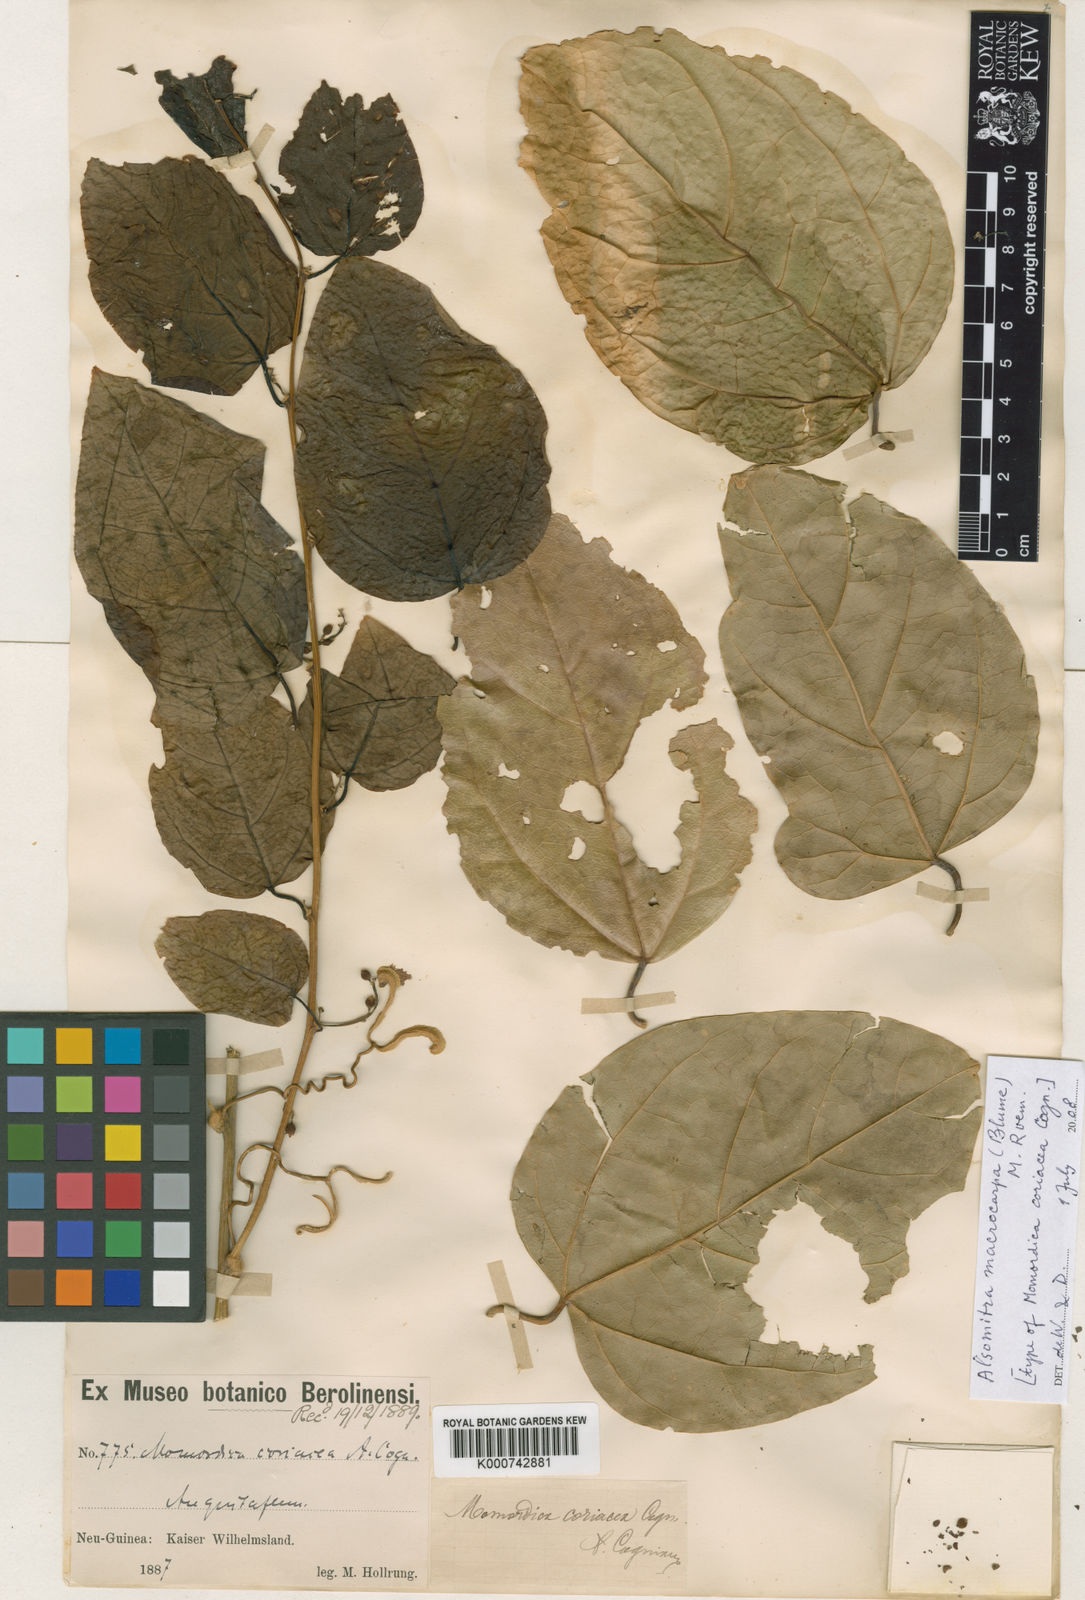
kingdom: Plantae
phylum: Tracheophyta
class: Magnoliopsida
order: Cucurbitales
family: Cucurbitaceae
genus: Alsomitra
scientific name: Alsomitra macrocarpa
